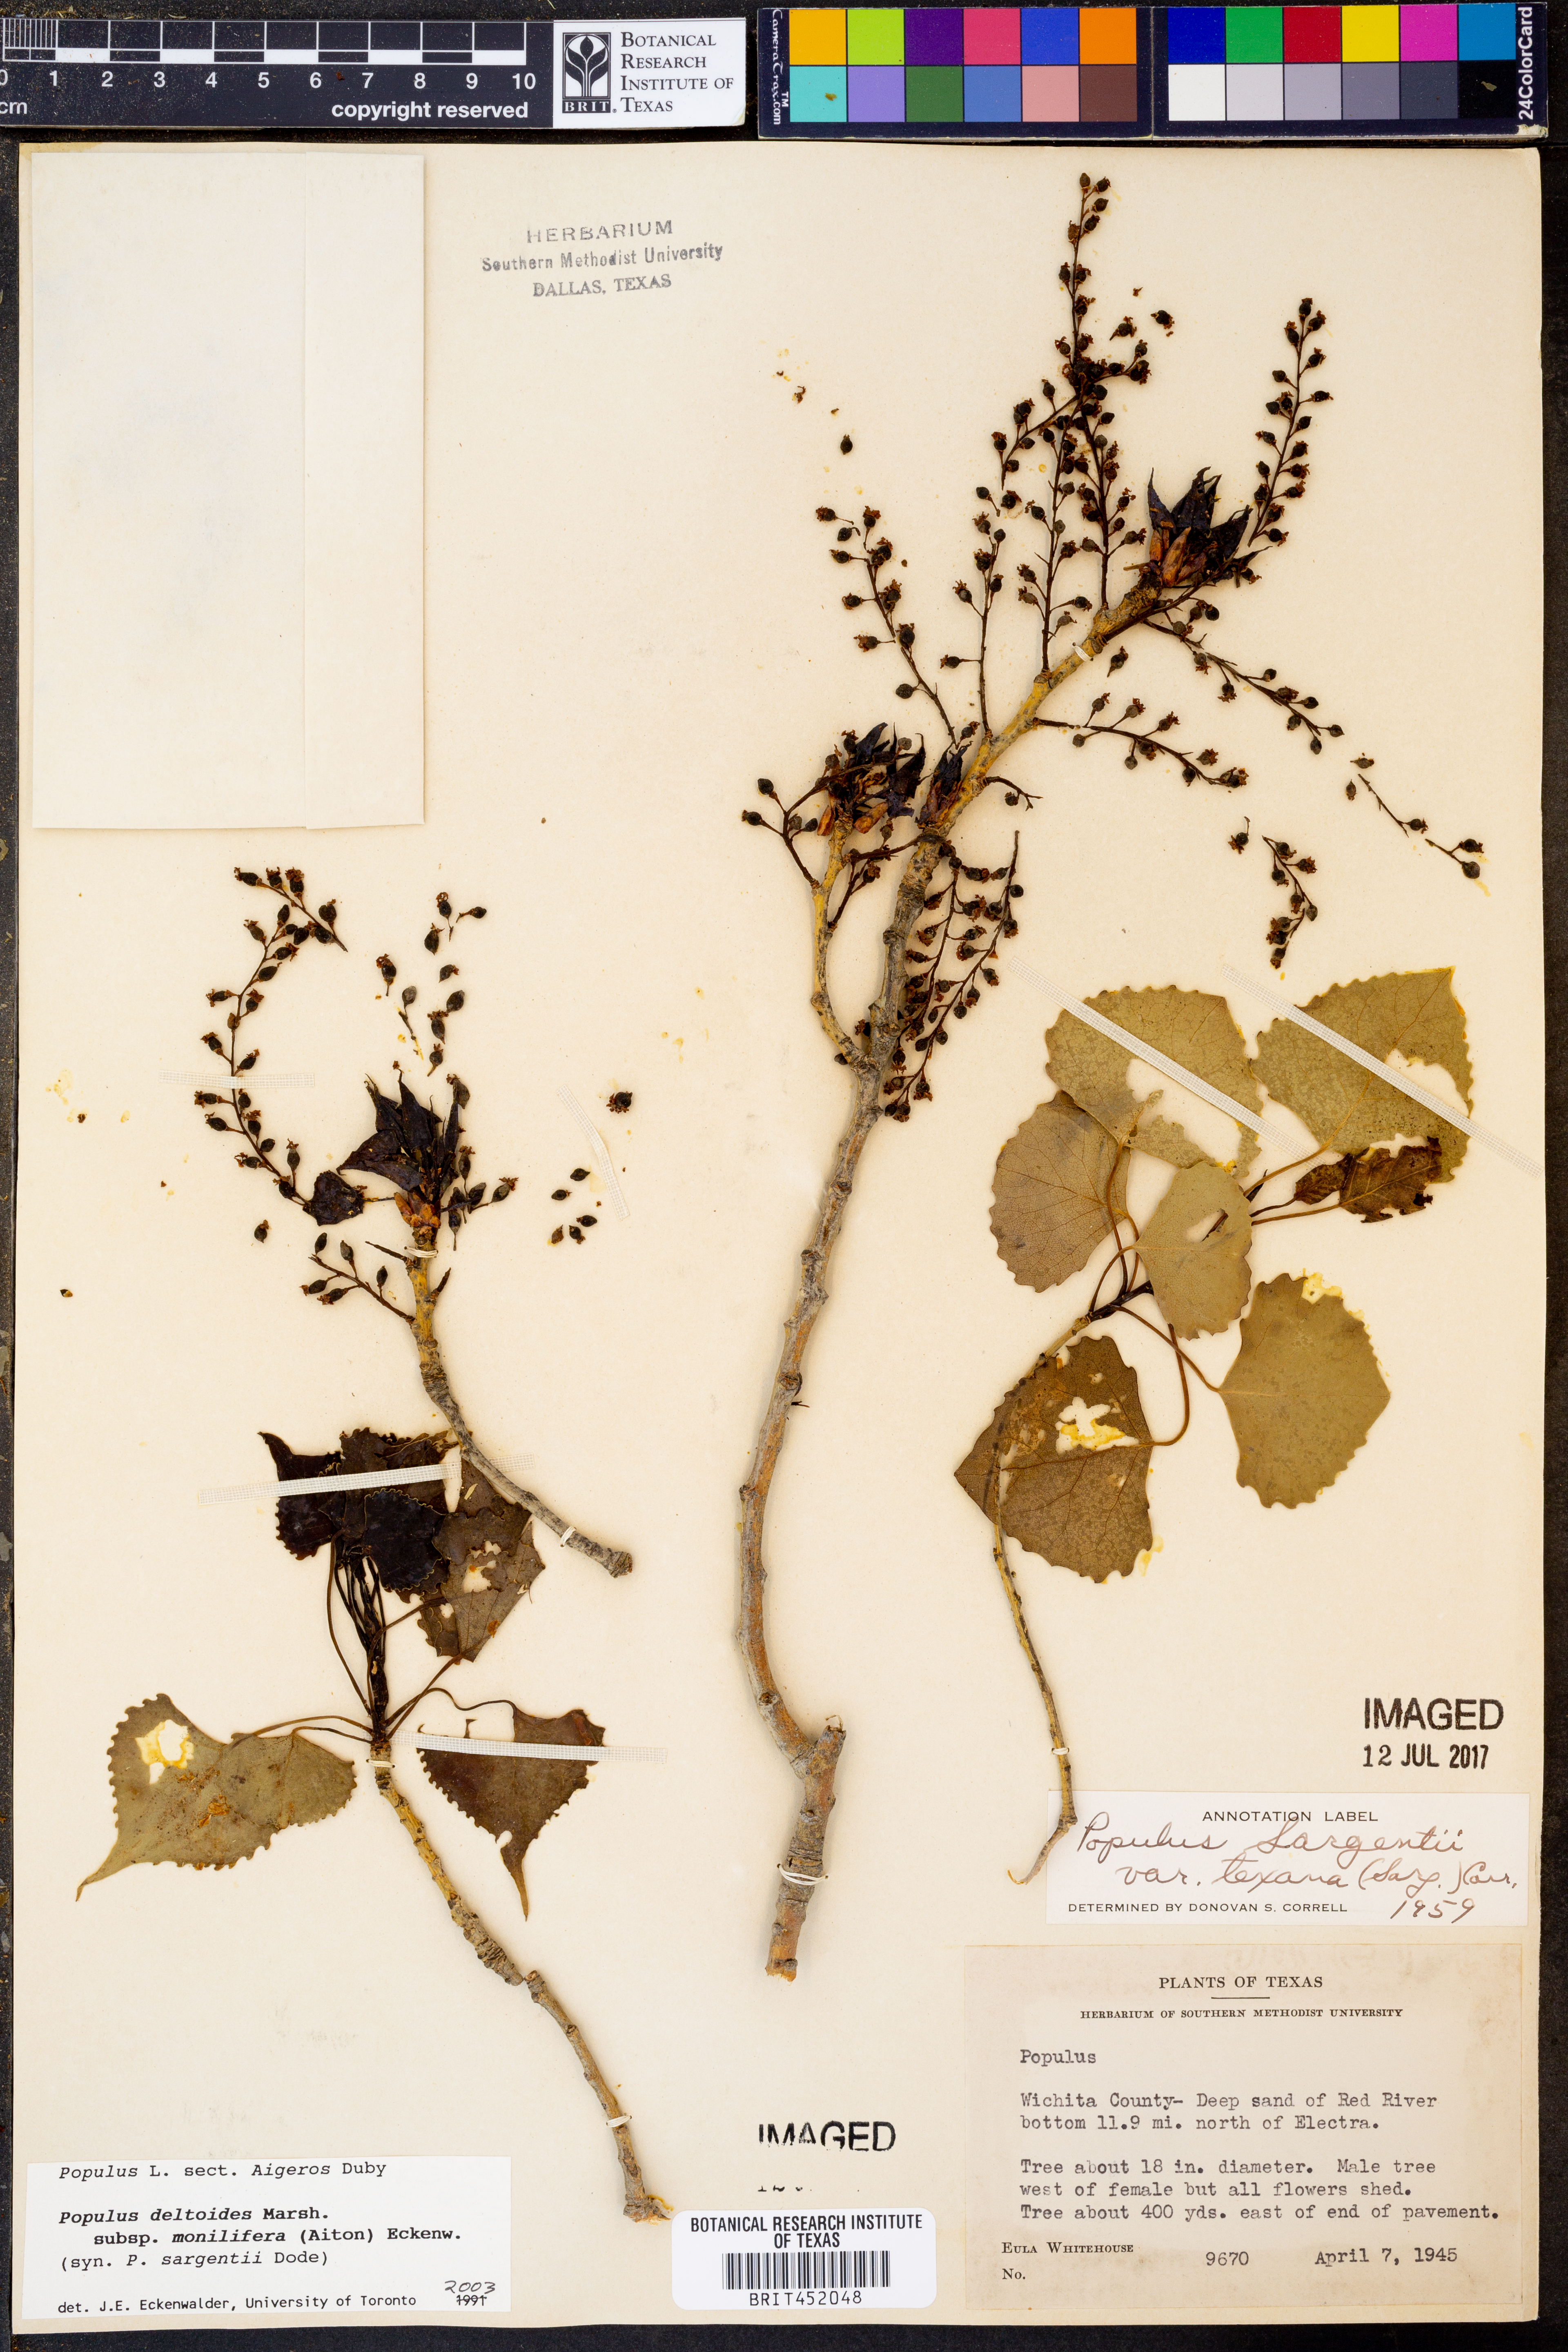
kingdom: Plantae
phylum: Tracheophyta
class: Magnoliopsida
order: Malpighiales
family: Salicaceae
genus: Populus
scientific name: Populus deltoides
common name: Eastern cottonwood
